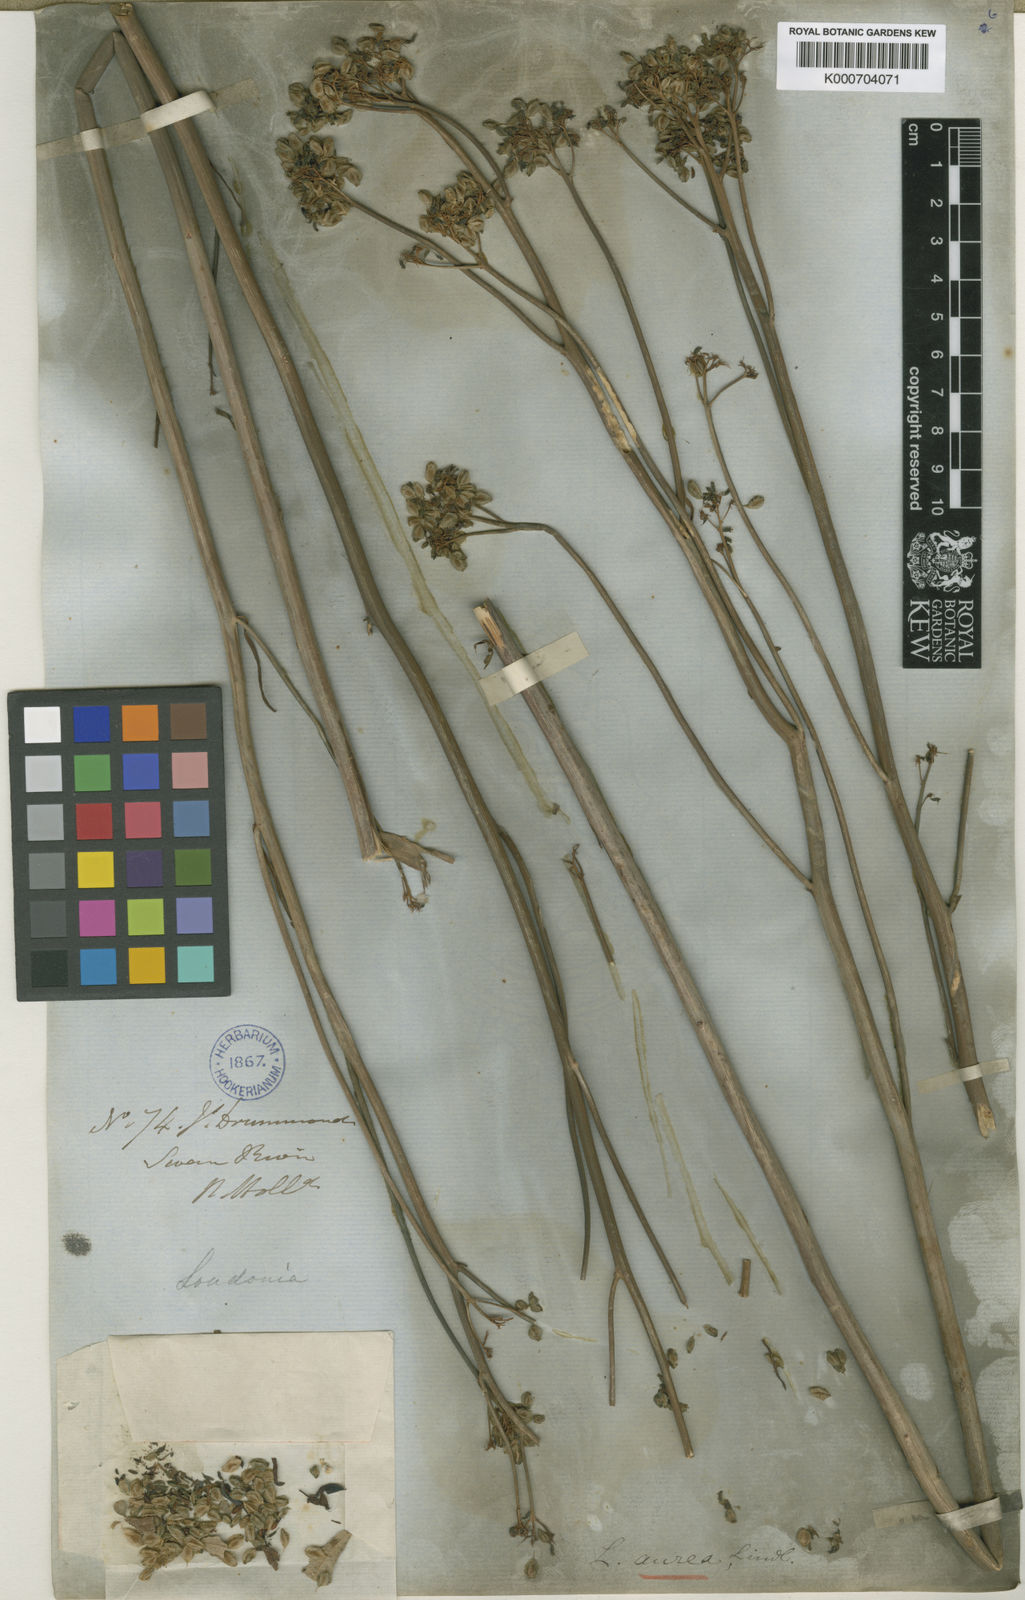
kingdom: Plantae
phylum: Tracheophyta
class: Magnoliopsida
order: Saxifragales
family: Haloragaceae
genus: Glischrocaryon
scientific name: Glischrocaryon aureum
